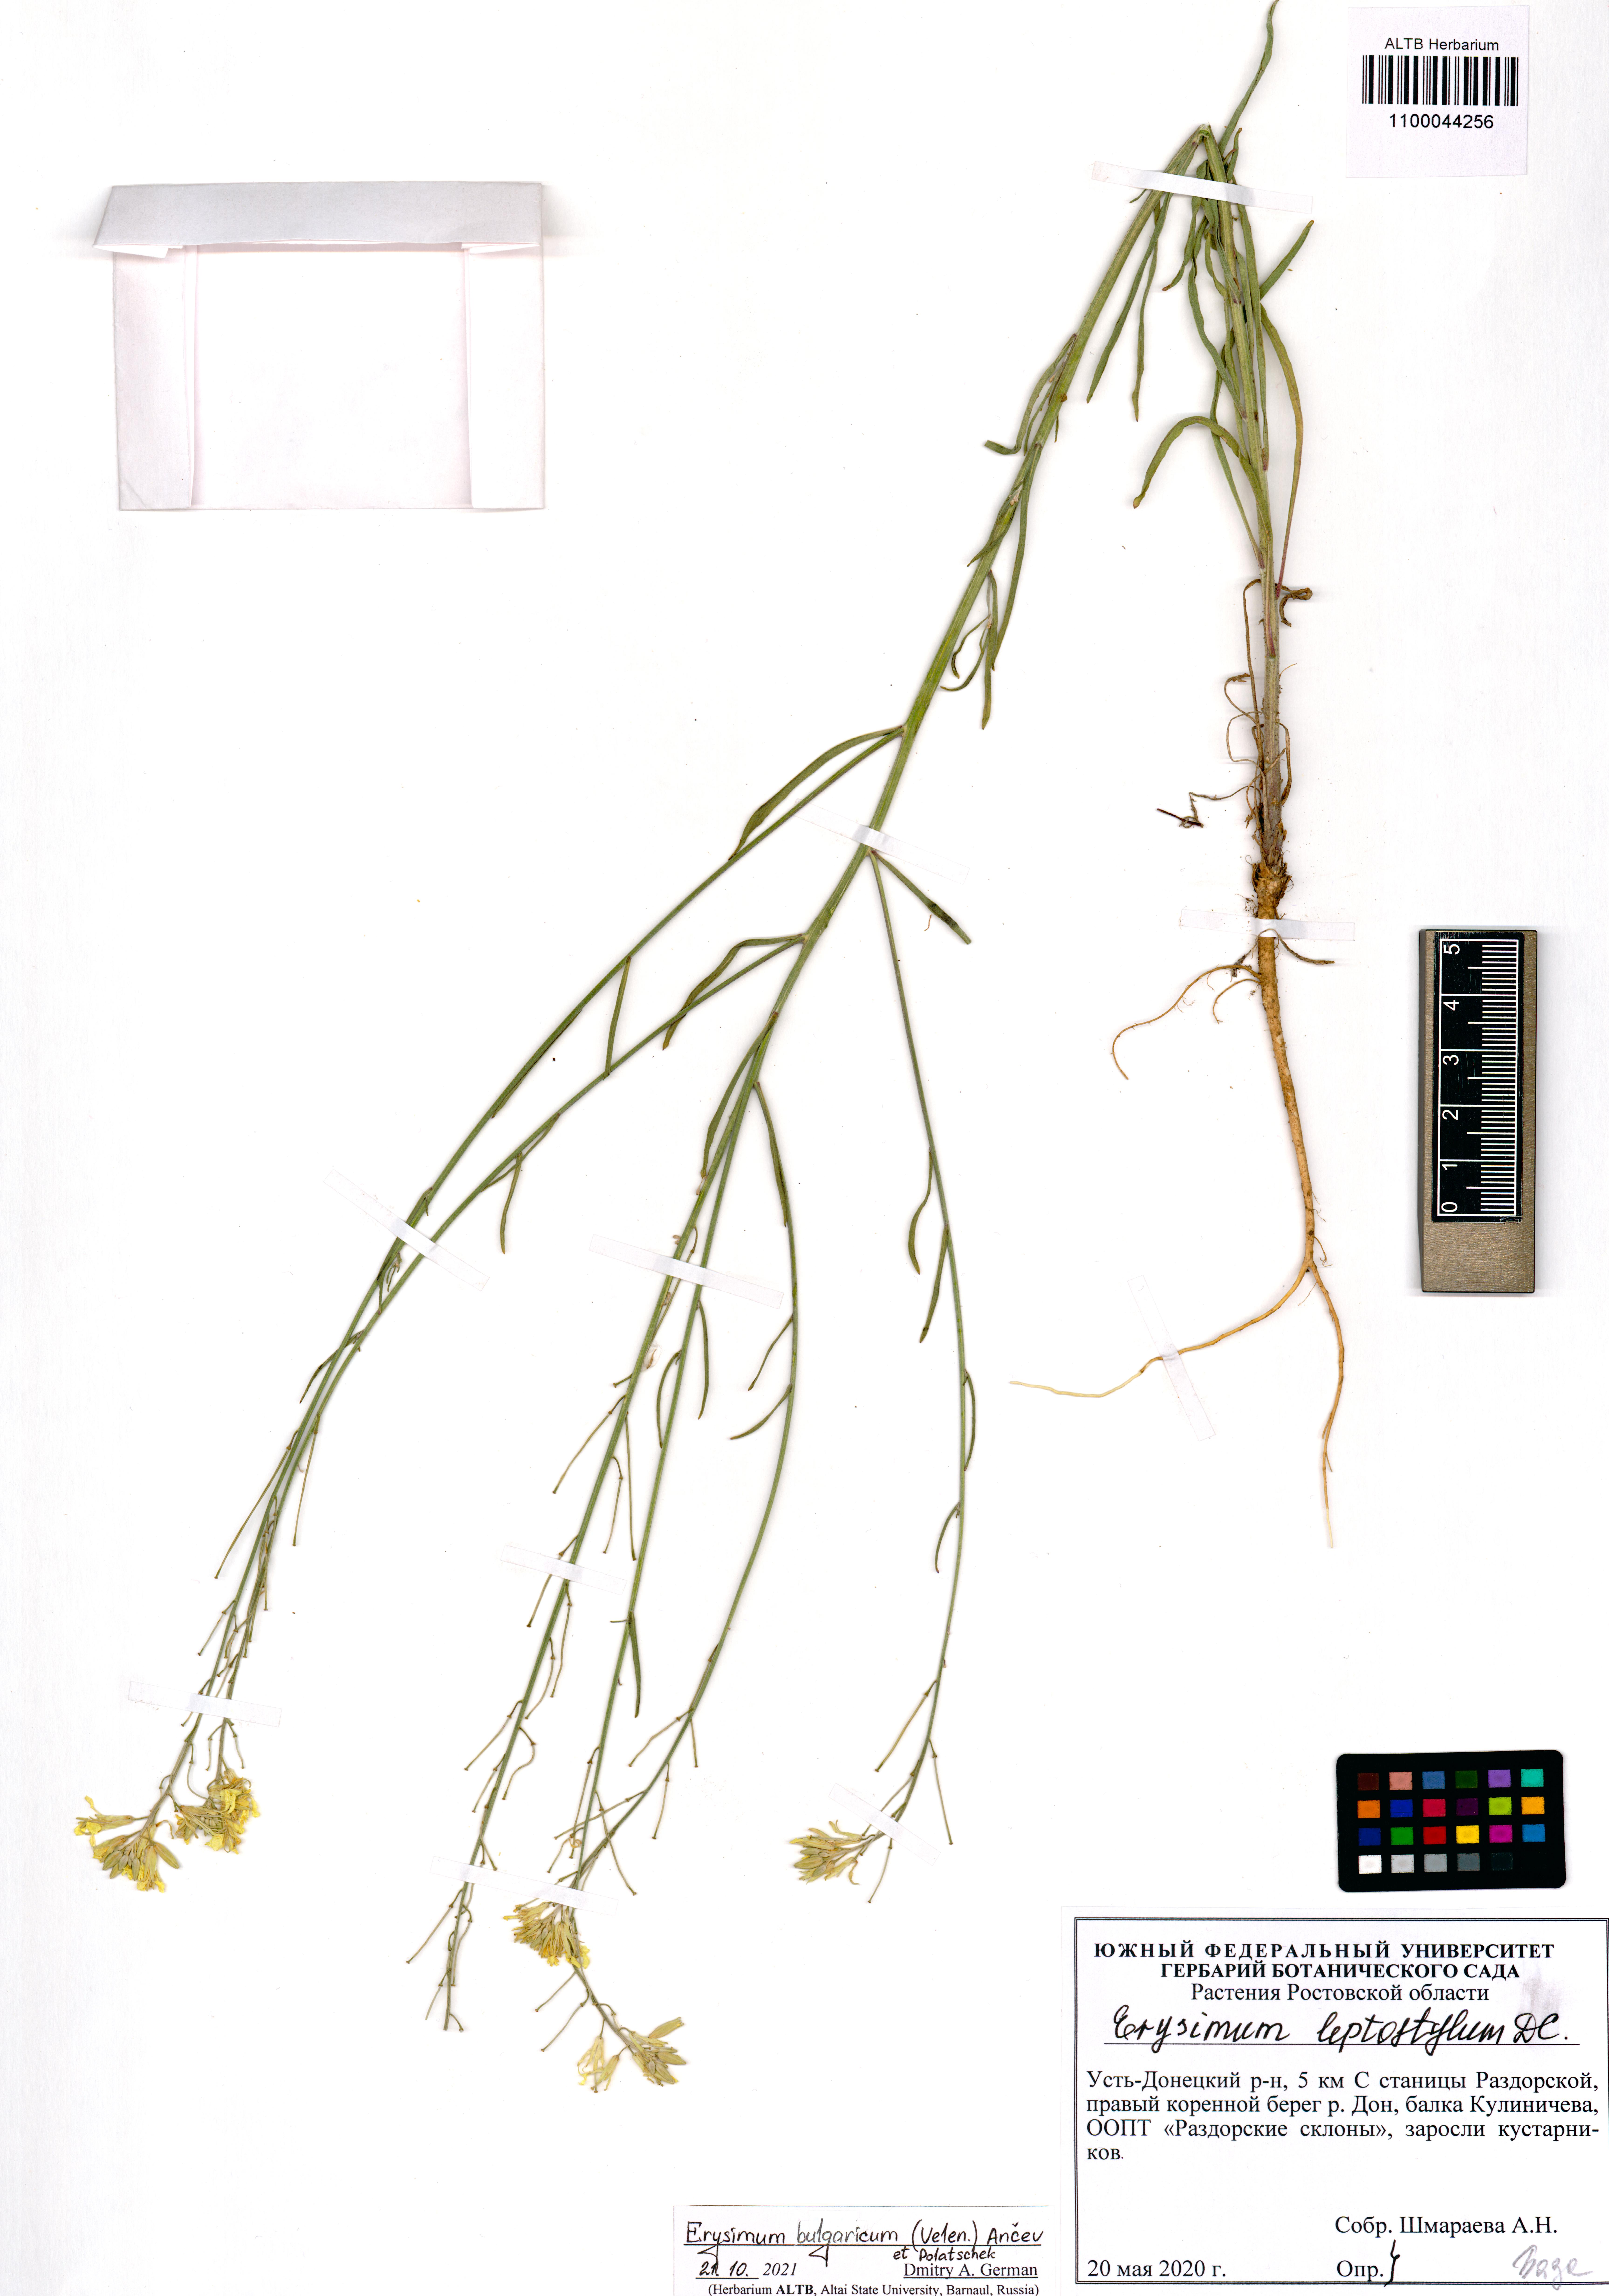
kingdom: Plantae
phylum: Tracheophyta
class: Magnoliopsida
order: Brassicales
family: Brassicaceae
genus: Erysimum
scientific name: Erysimum bulgaricum
